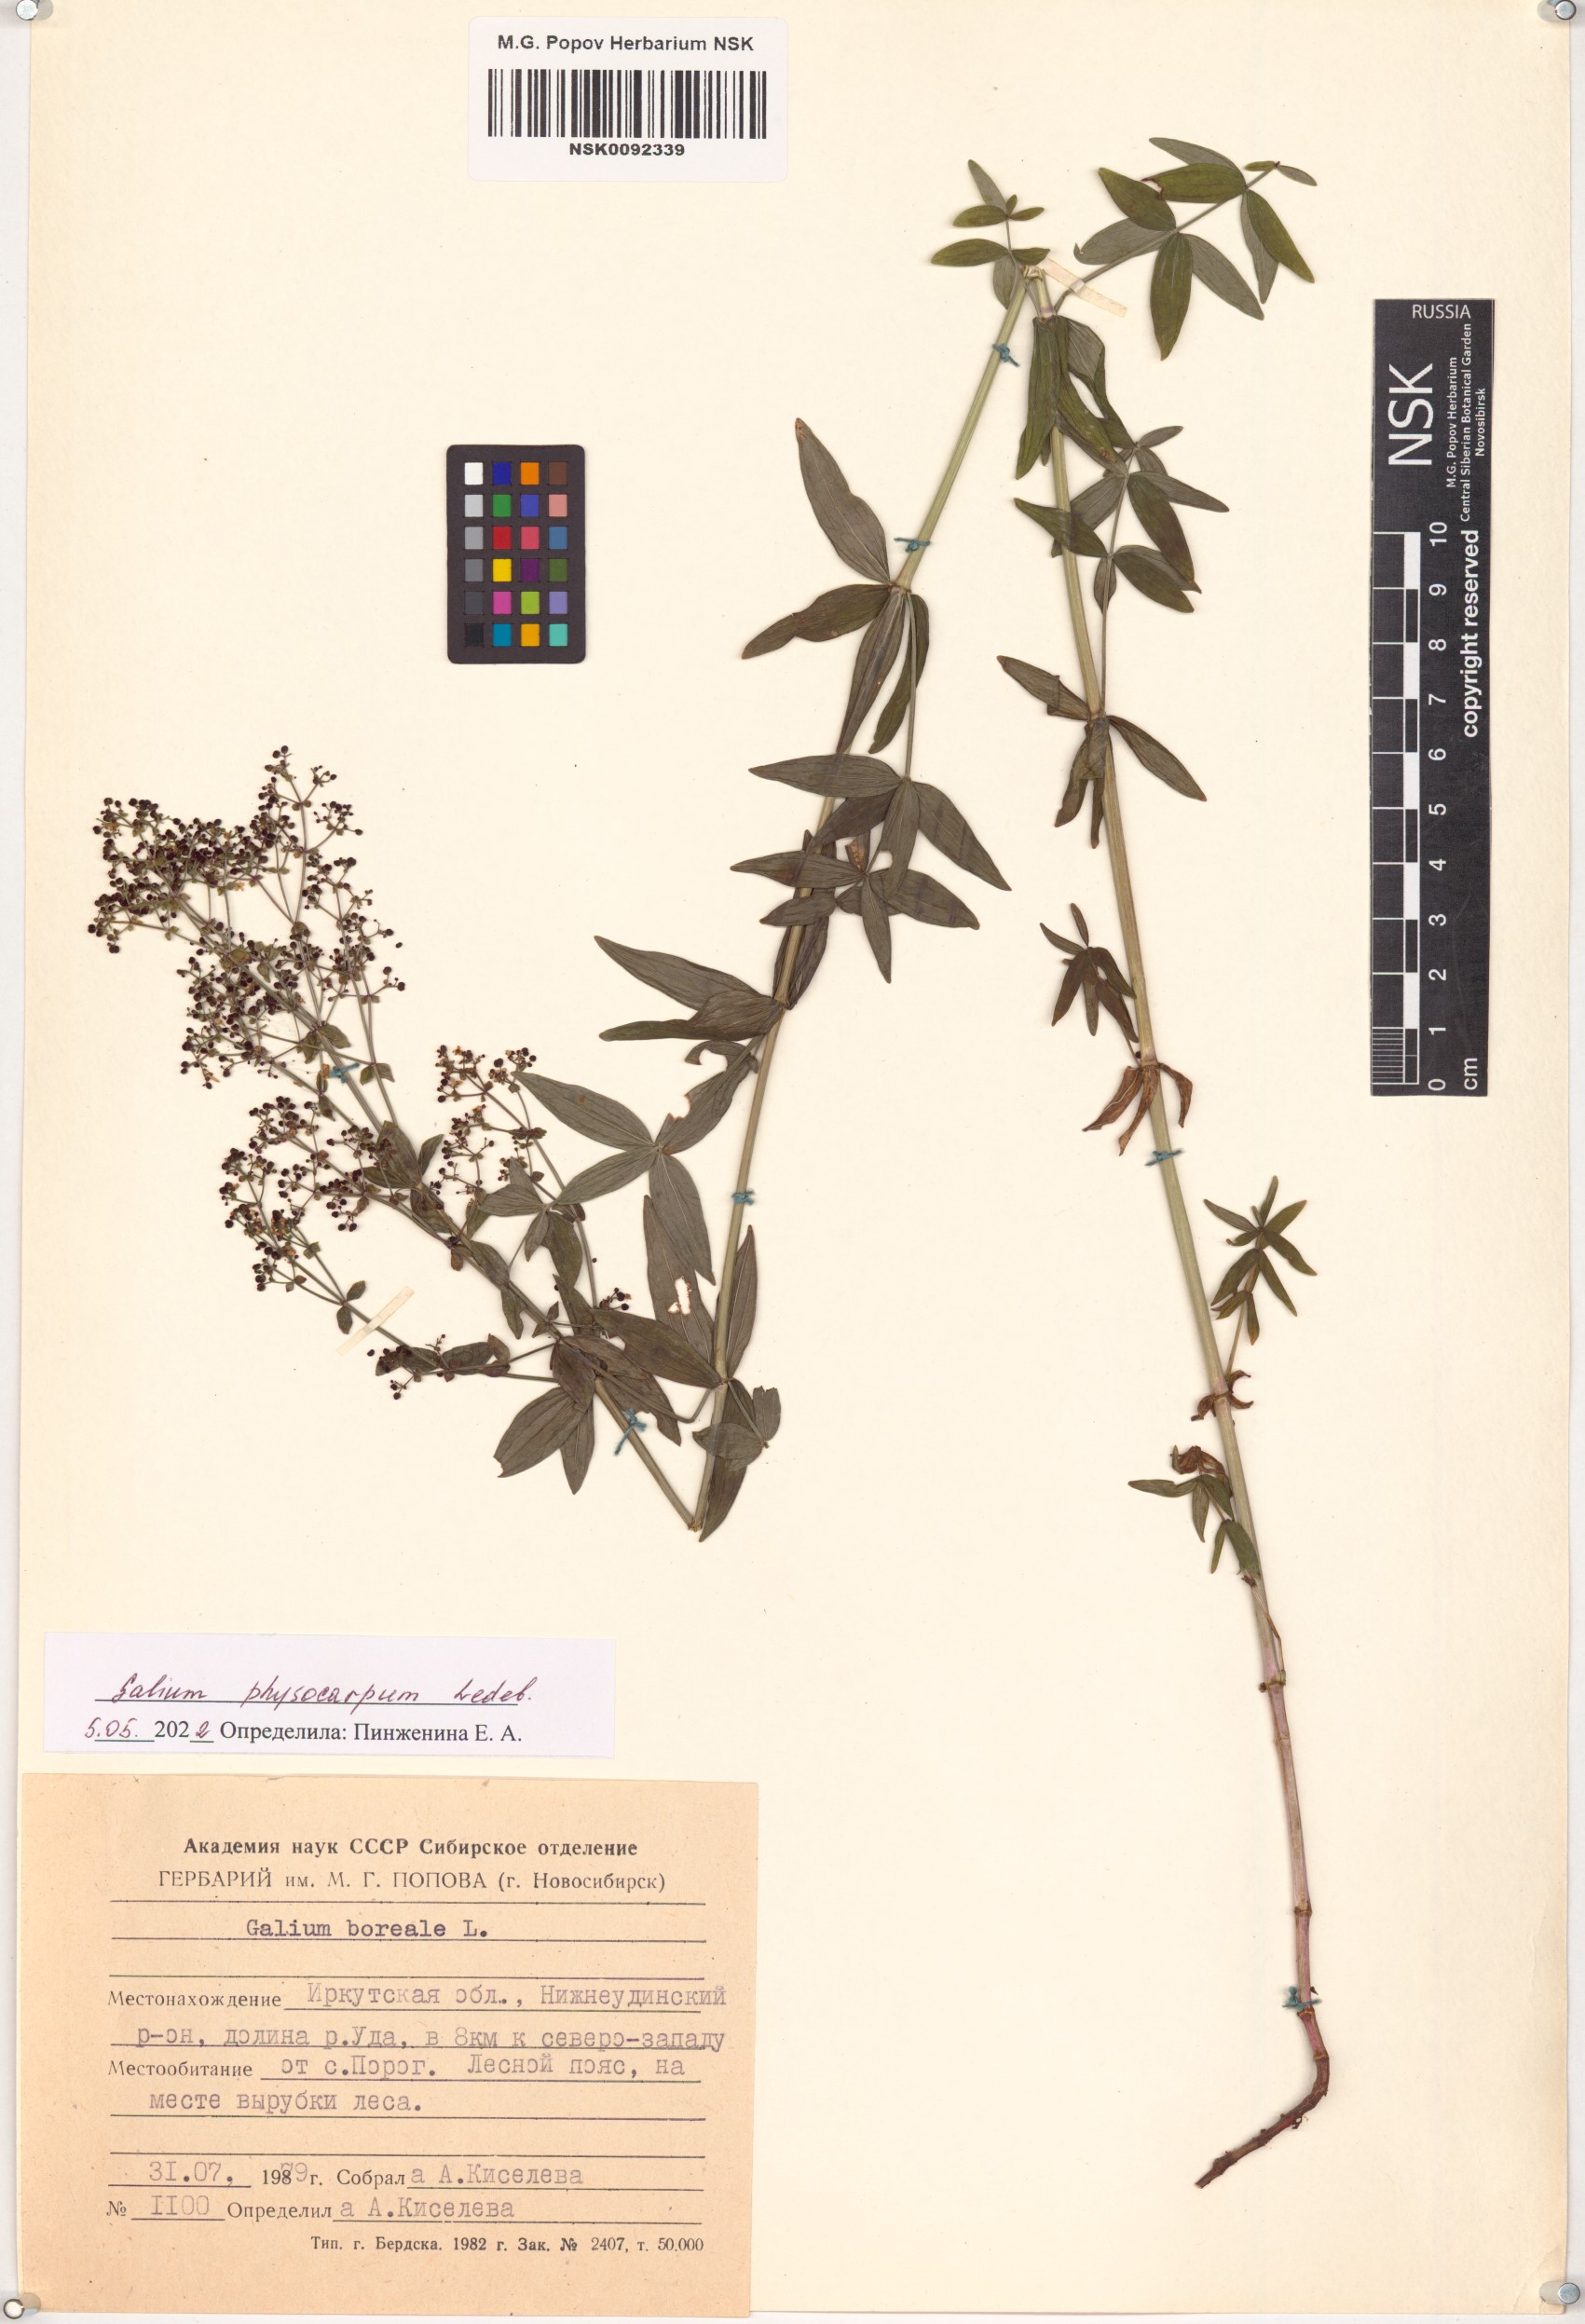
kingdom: Plantae
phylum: Tracheophyta
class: Magnoliopsida
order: Gentianales
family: Rubiaceae
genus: Galium
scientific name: Galium rubioides
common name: European bedstraw
